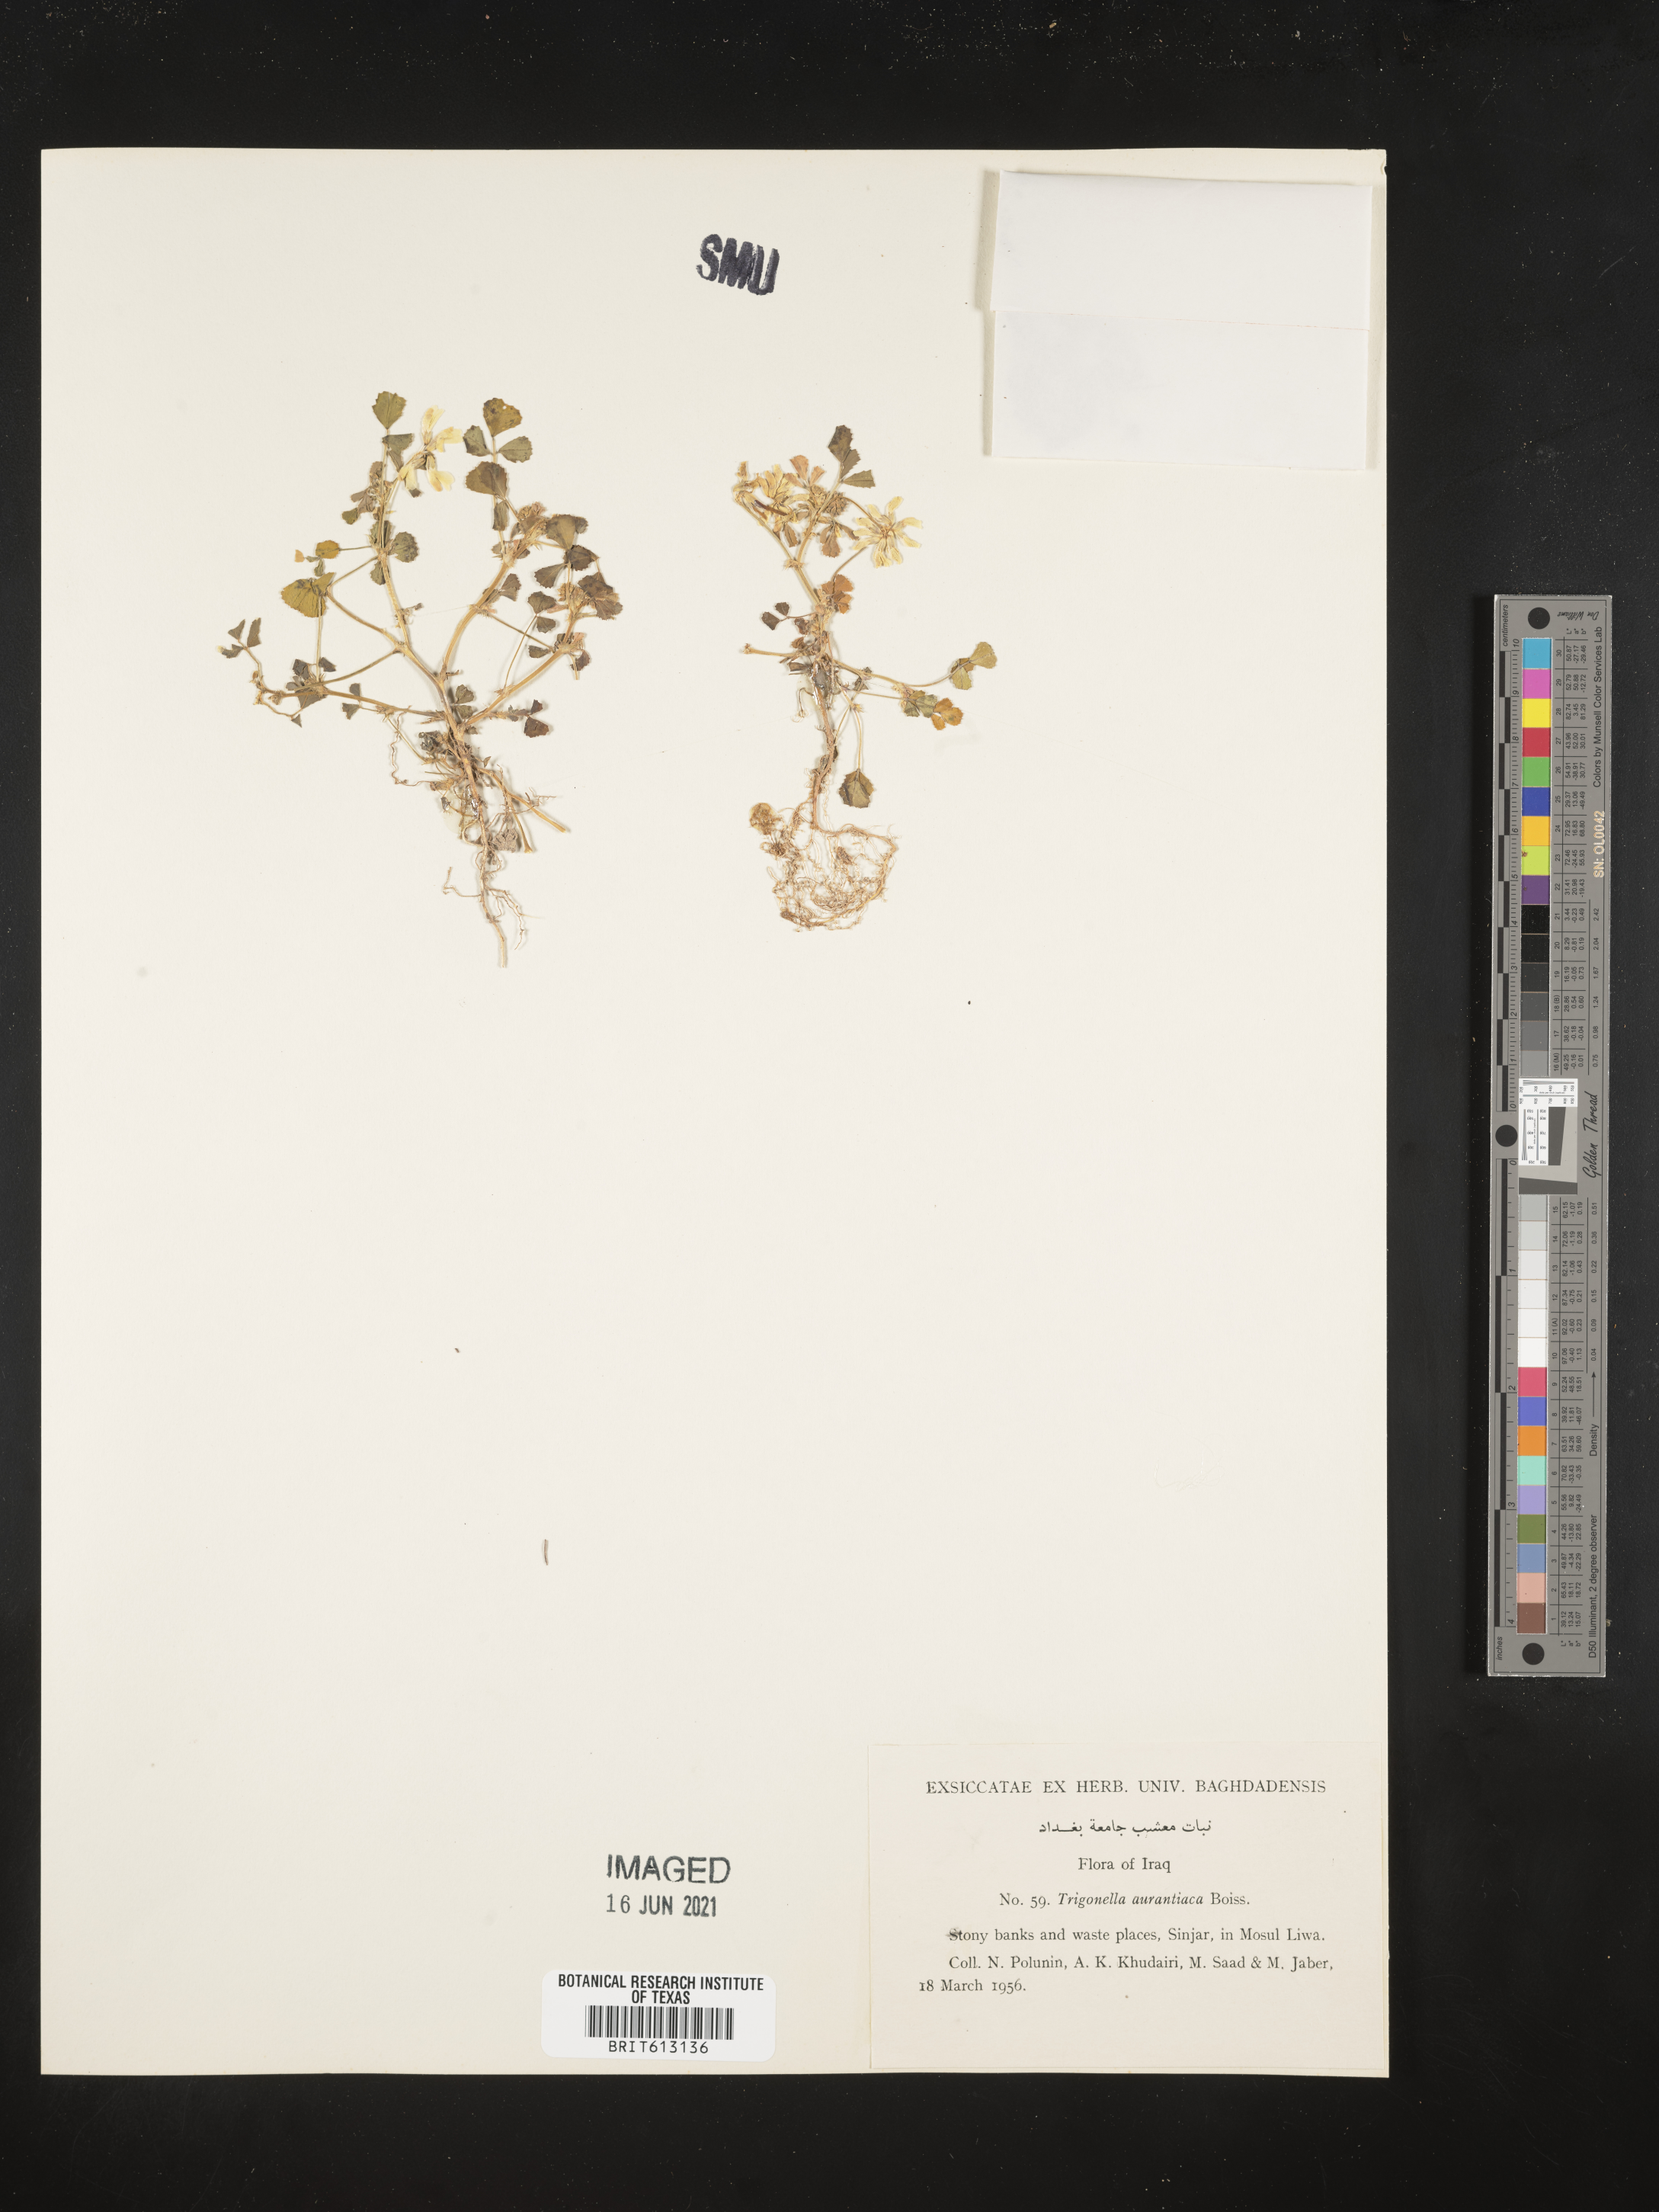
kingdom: Plantae
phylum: Tracheophyta
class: Magnoliopsida
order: Fabales
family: Fabaceae
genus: Medicago
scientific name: Medicago phrygia
